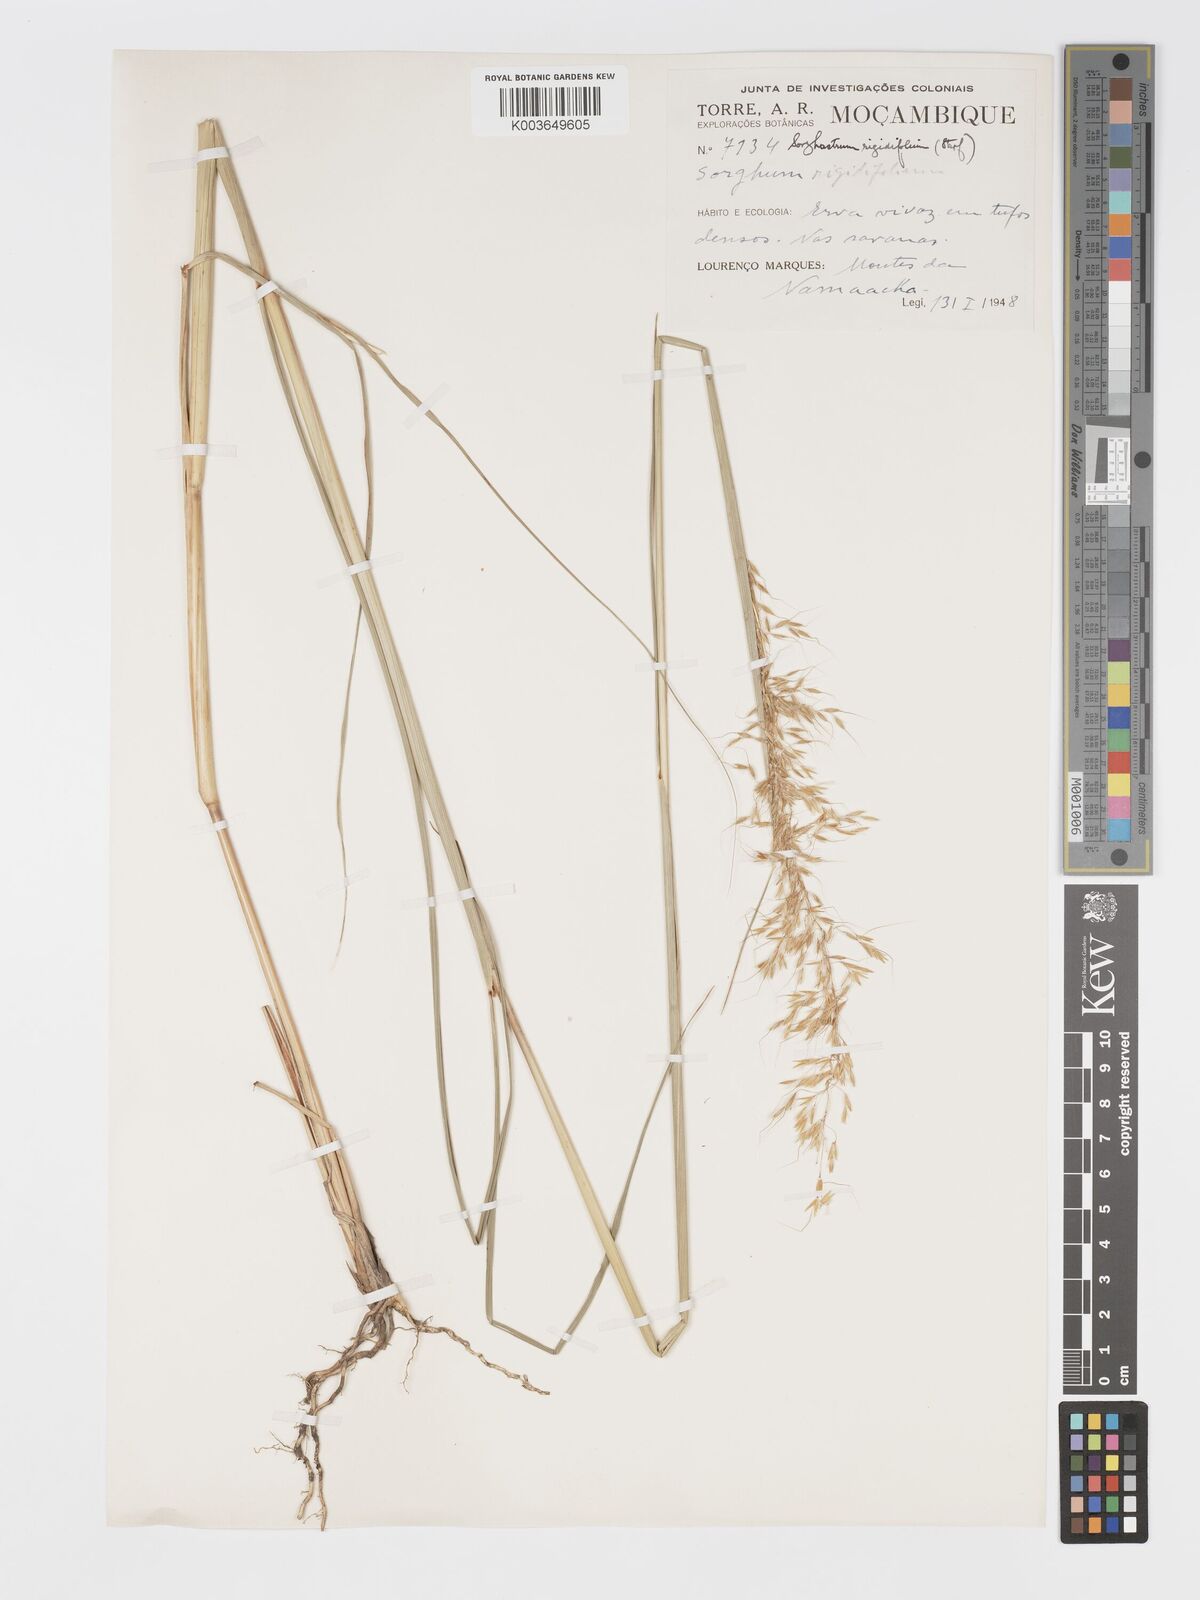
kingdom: Plantae
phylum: Tracheophyta
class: Liliopsida
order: Poales
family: Poaceae
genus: Sorghastrum
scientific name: Sorghastrum stipoides
